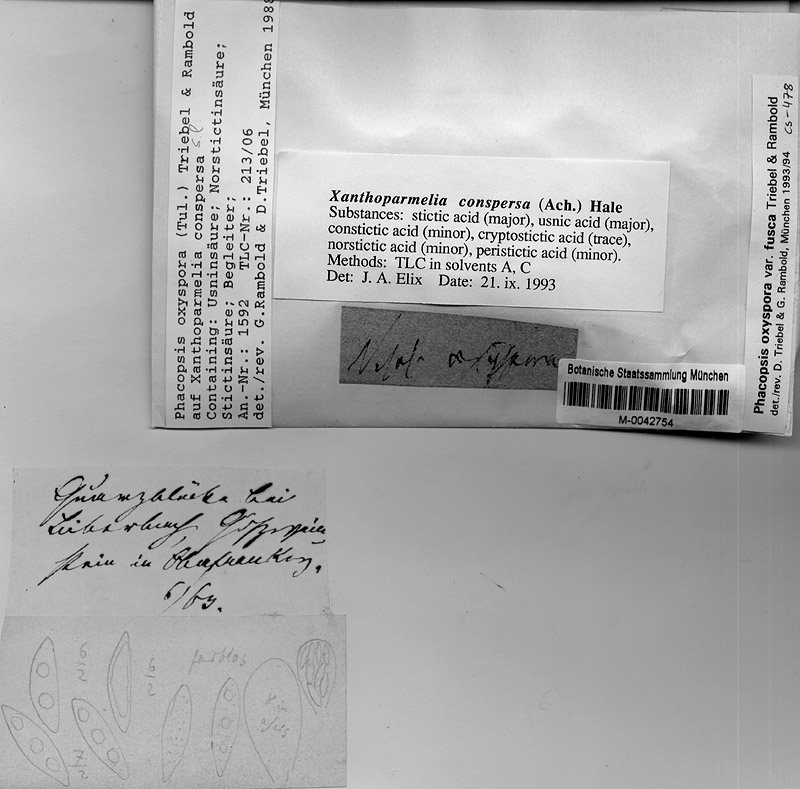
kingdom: Fungi
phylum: Ascomycota
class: Lecanoromycetes
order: Lecanorales
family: Parmeliaceae
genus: Xanthoparmelia
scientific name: Xanthoparmelia conspersa
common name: Peppered rock shield
